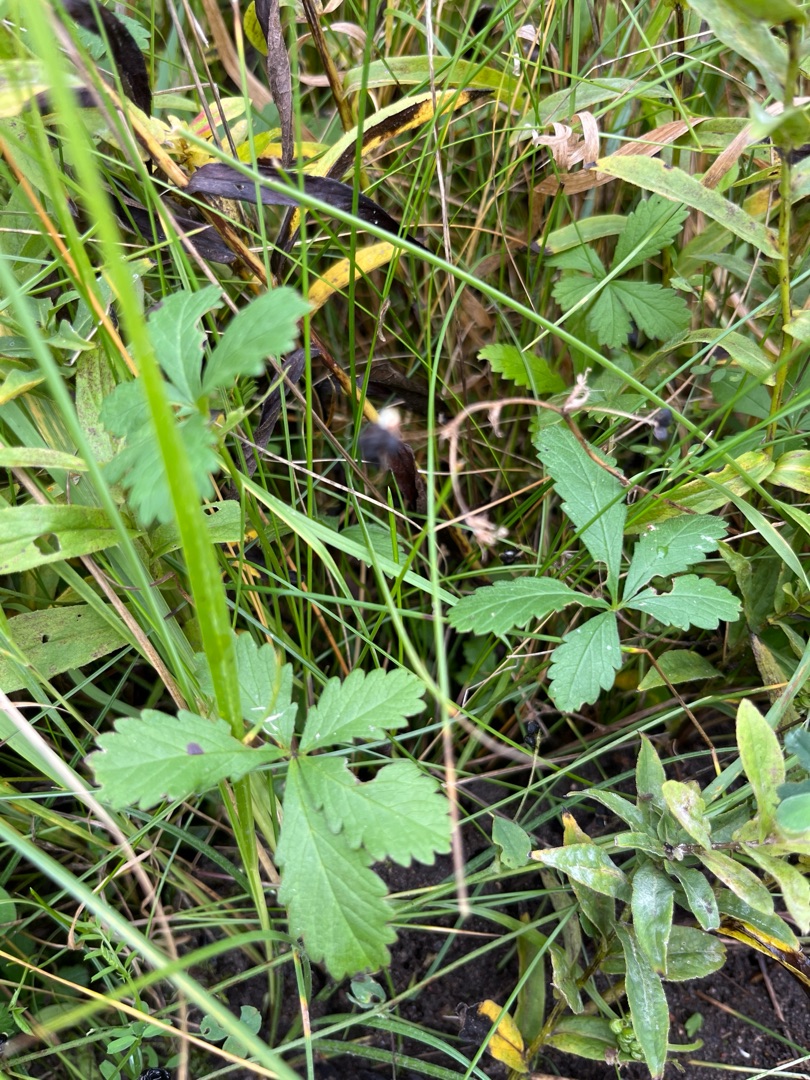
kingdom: Plantae
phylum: Tracheophyta
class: Magnoliopsida
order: Rosales
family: Rosaceae
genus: Potentilla
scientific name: Potentilla reptans
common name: Krybende potentil
